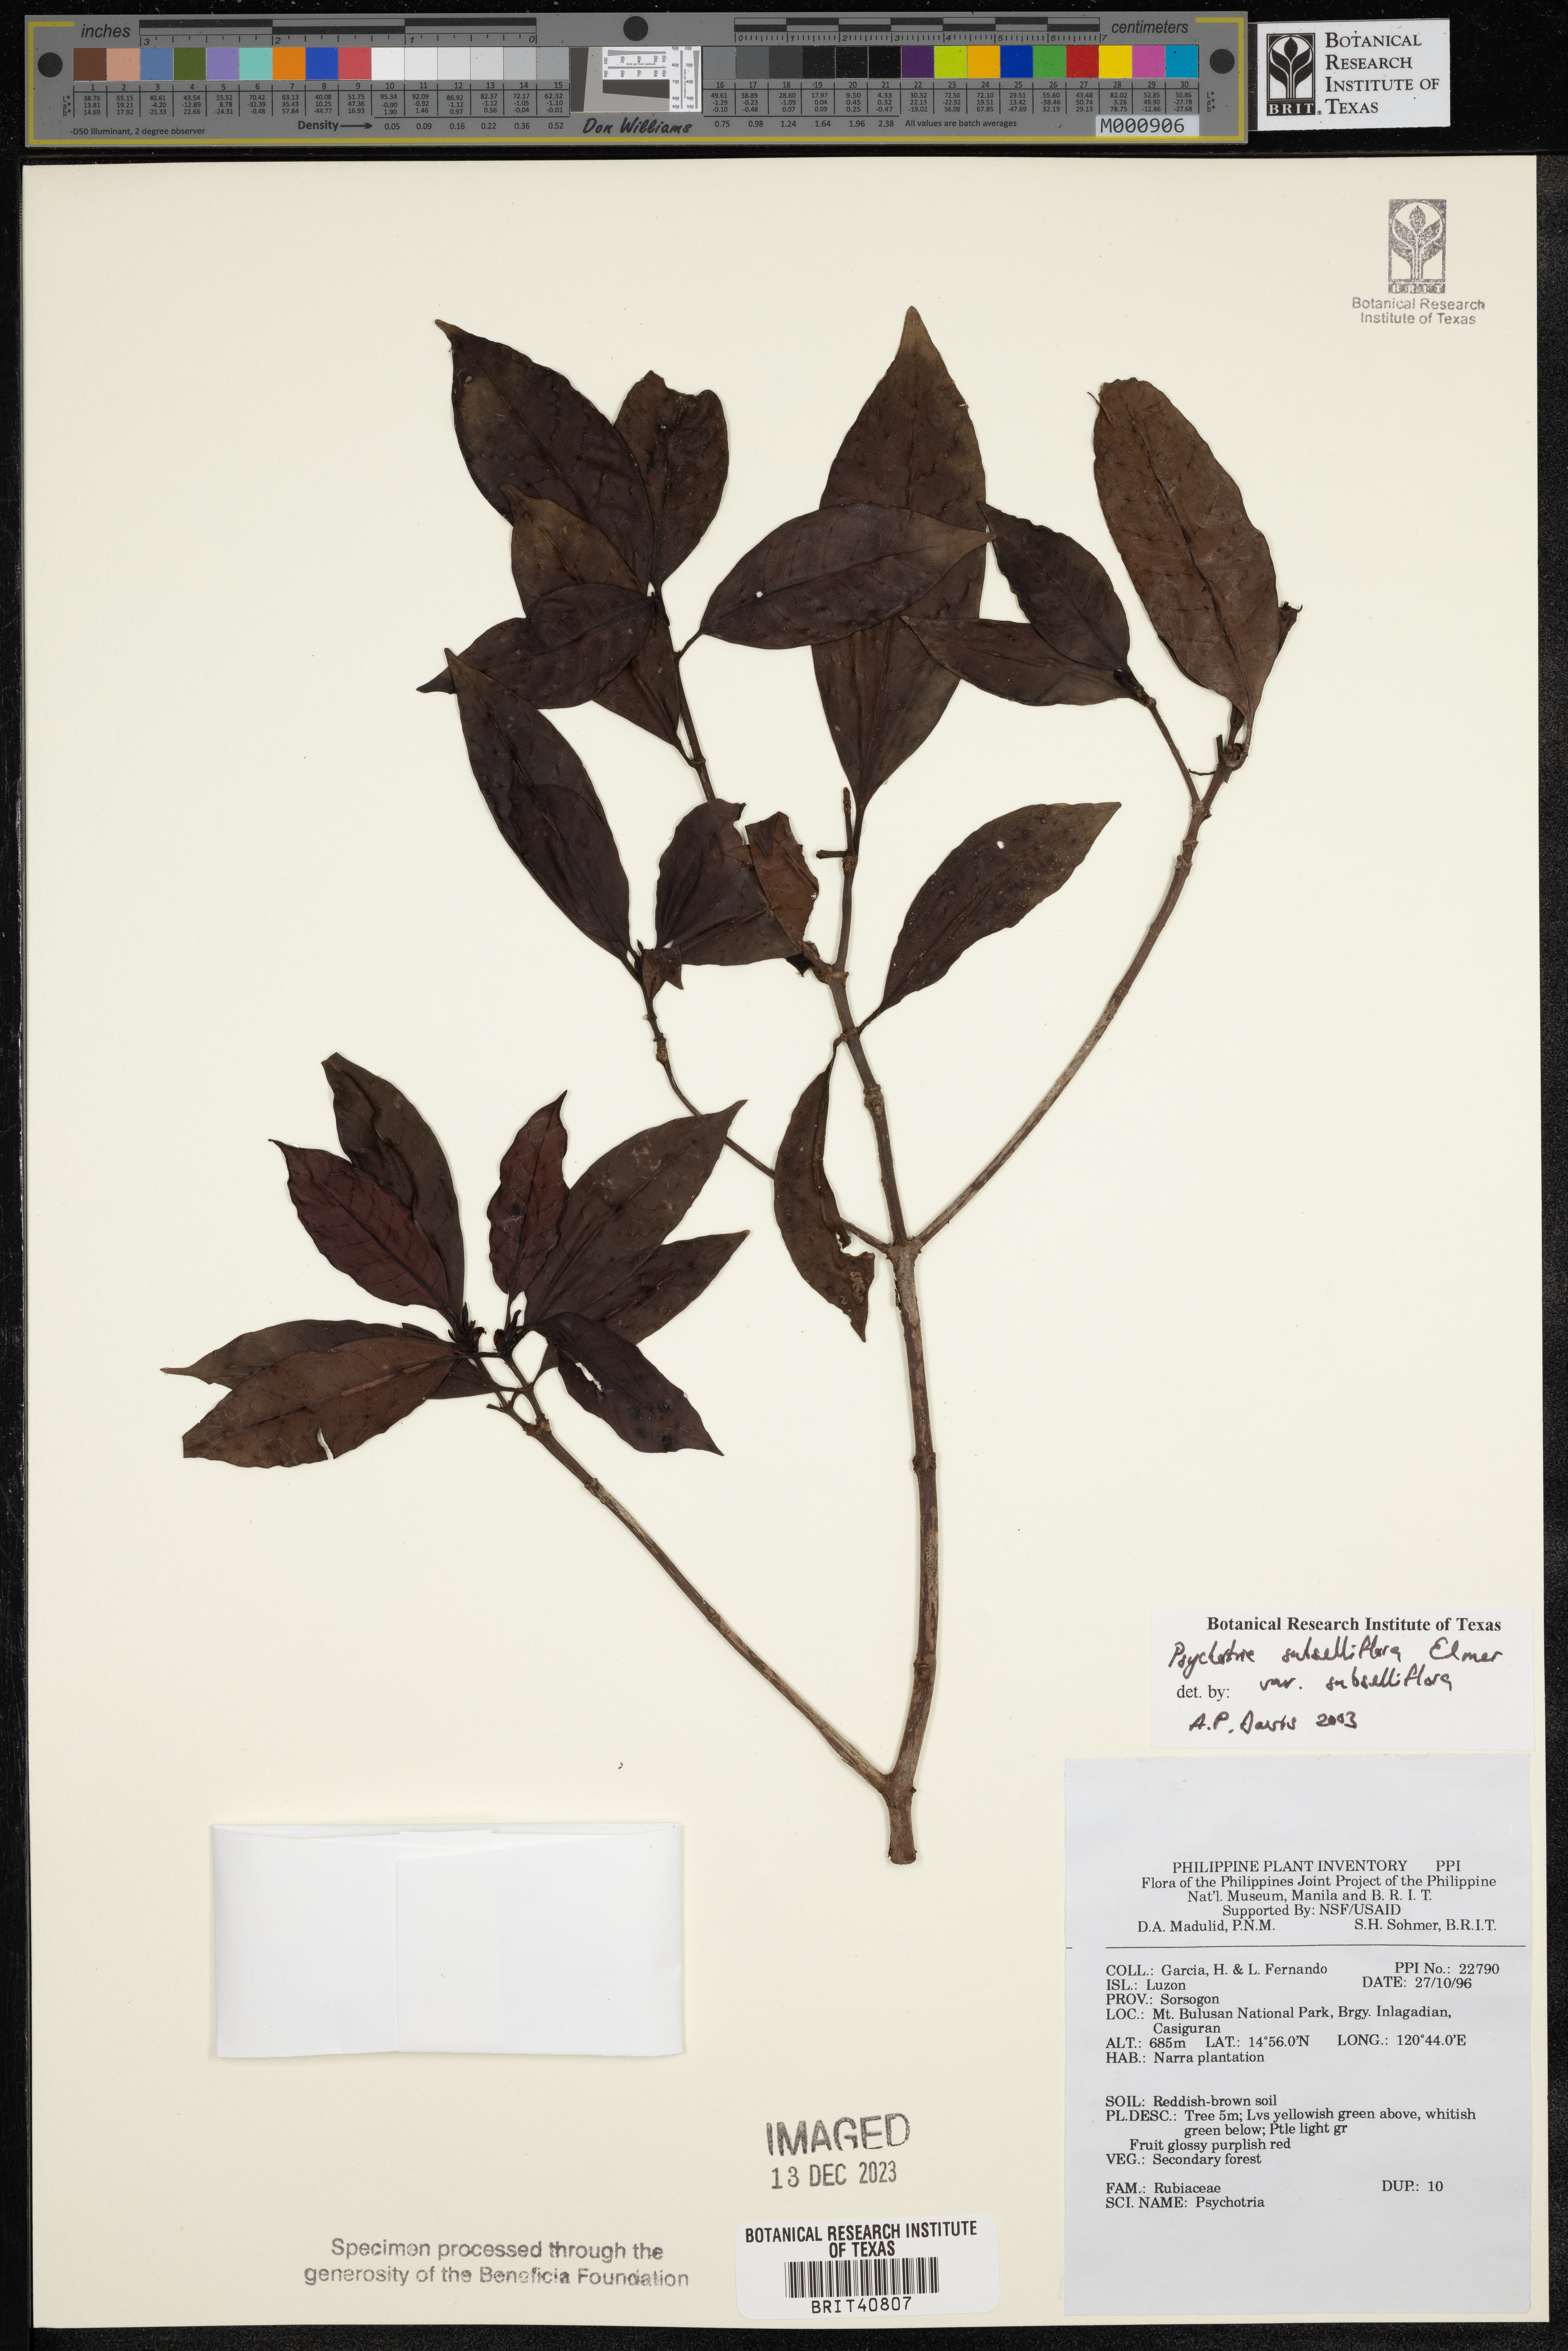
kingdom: Plantae
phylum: Tracheophyta
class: Magnoliopsida
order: Gentianales
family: Rubiaceae
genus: Psychotria
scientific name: Psychotria subsessiliflora
